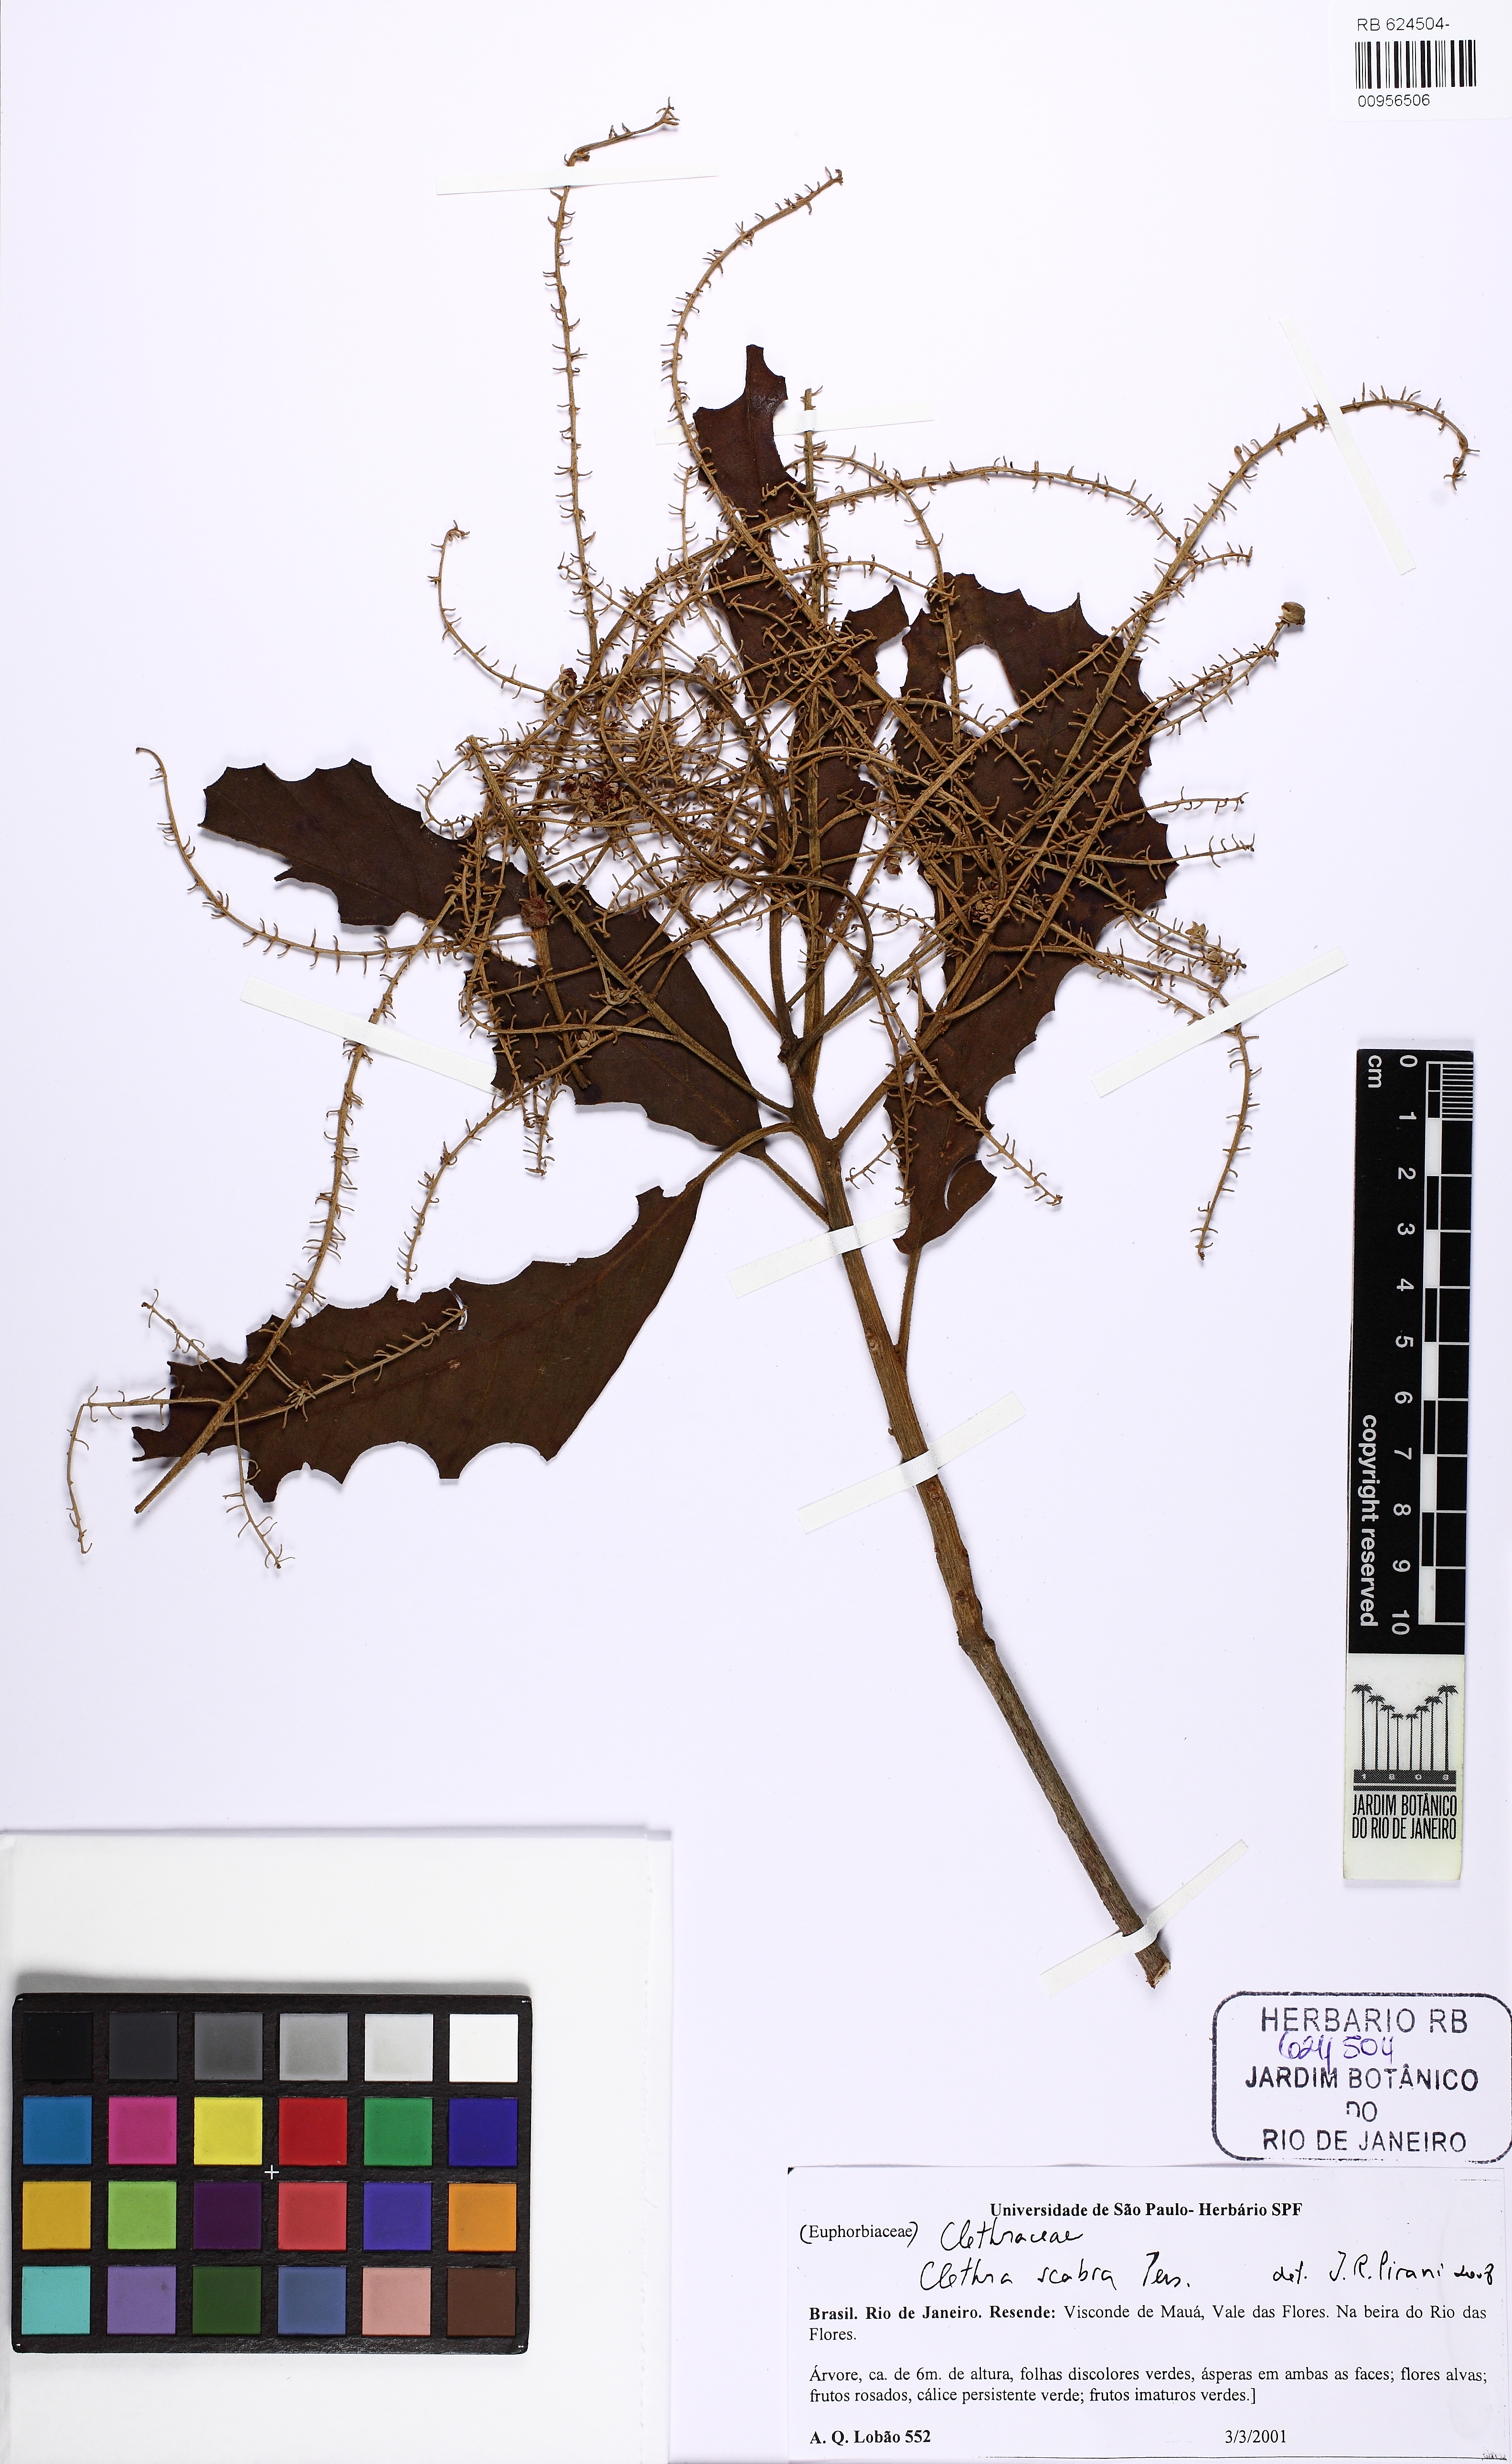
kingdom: Plantae
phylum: Tracheophyta
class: Magnoliopsida
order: Ericales
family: Clethraceae
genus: Clethra
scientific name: Clethra scabra
